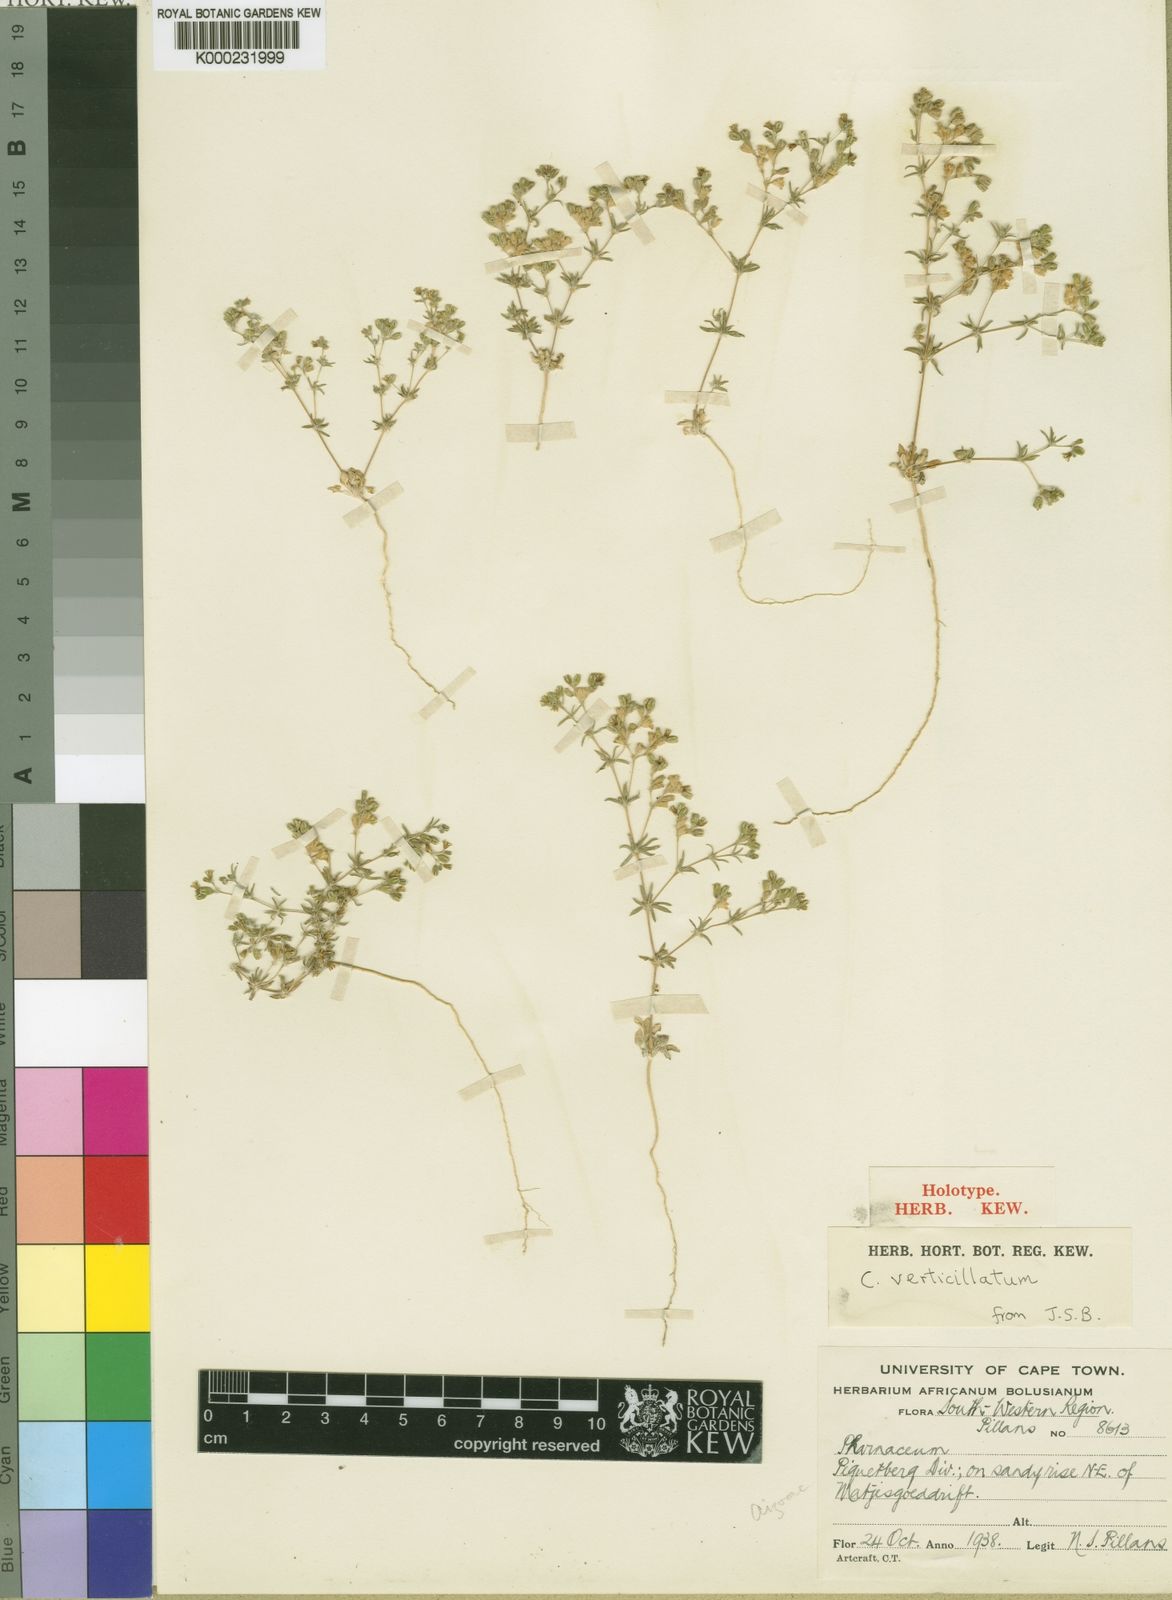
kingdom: Plantae
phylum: Tracheophyta
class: Magnoliopsida
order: Caryophyllales
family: Molluginaceae
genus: Coelanthum
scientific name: Coelanthum verticillatum
